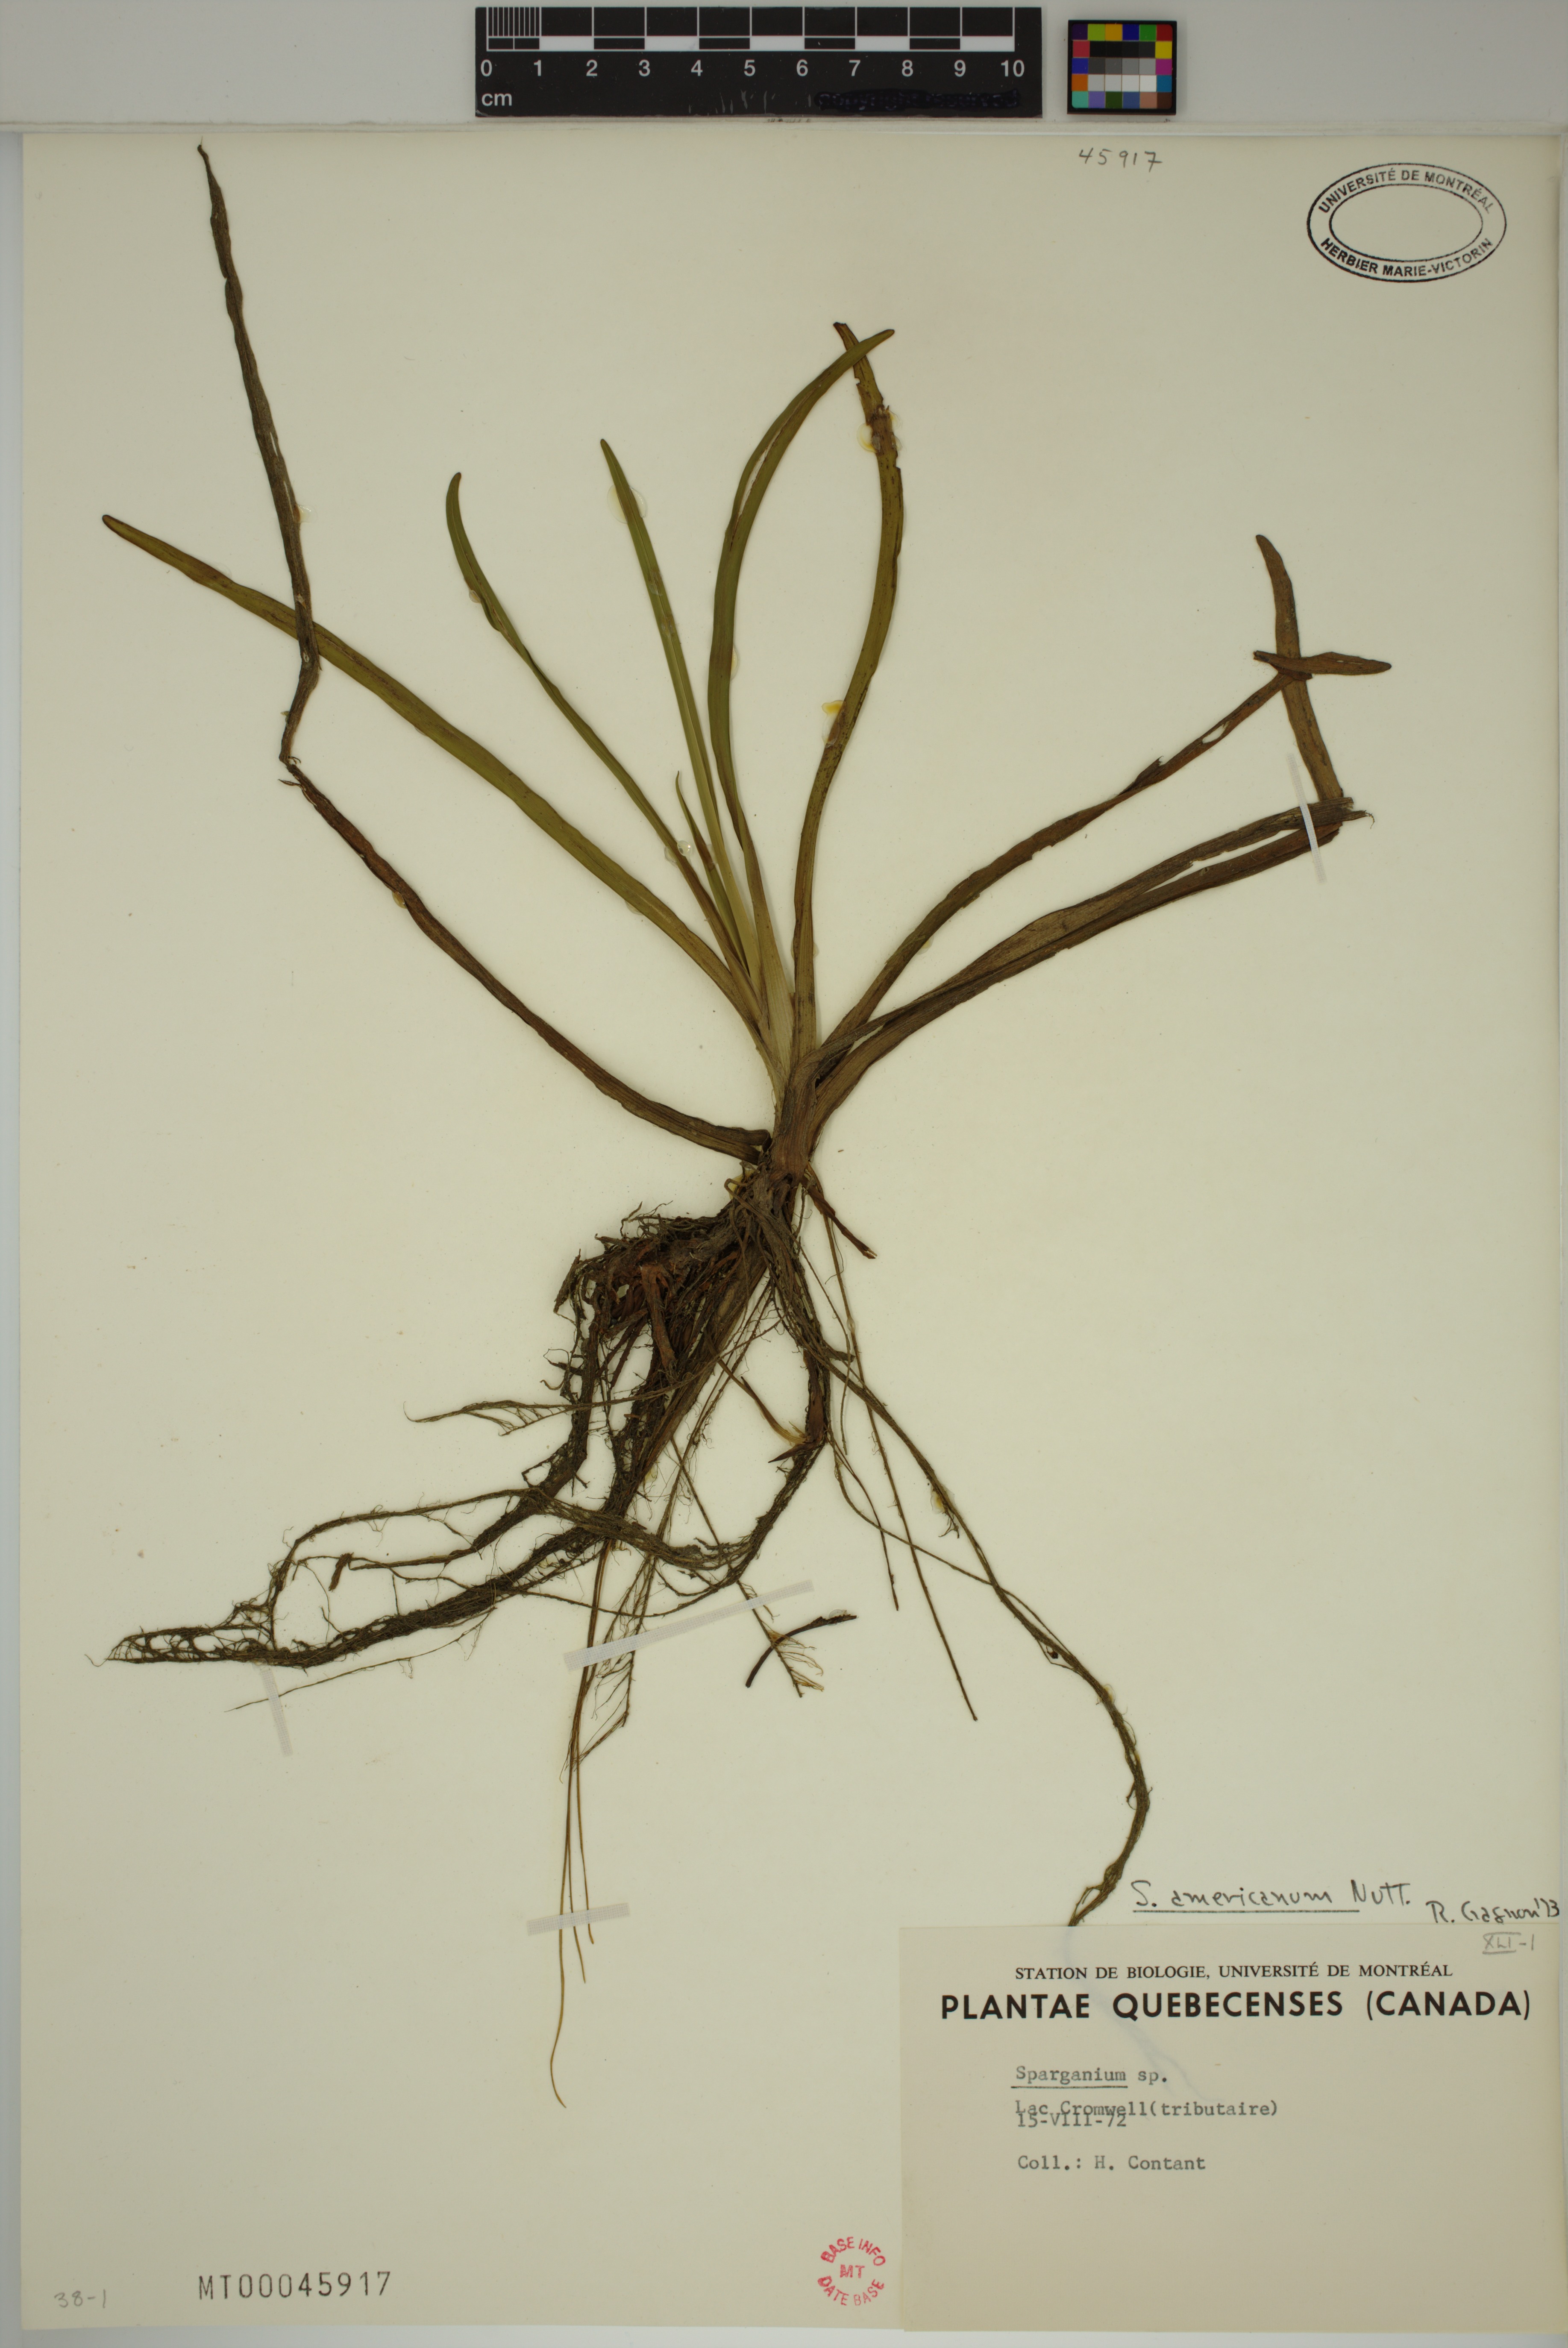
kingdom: Plantae
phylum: Tracheophyta
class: Liliopsida
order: Poales
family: Typhaceae
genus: Sparganium
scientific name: Sparganium americanum
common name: American burreed
